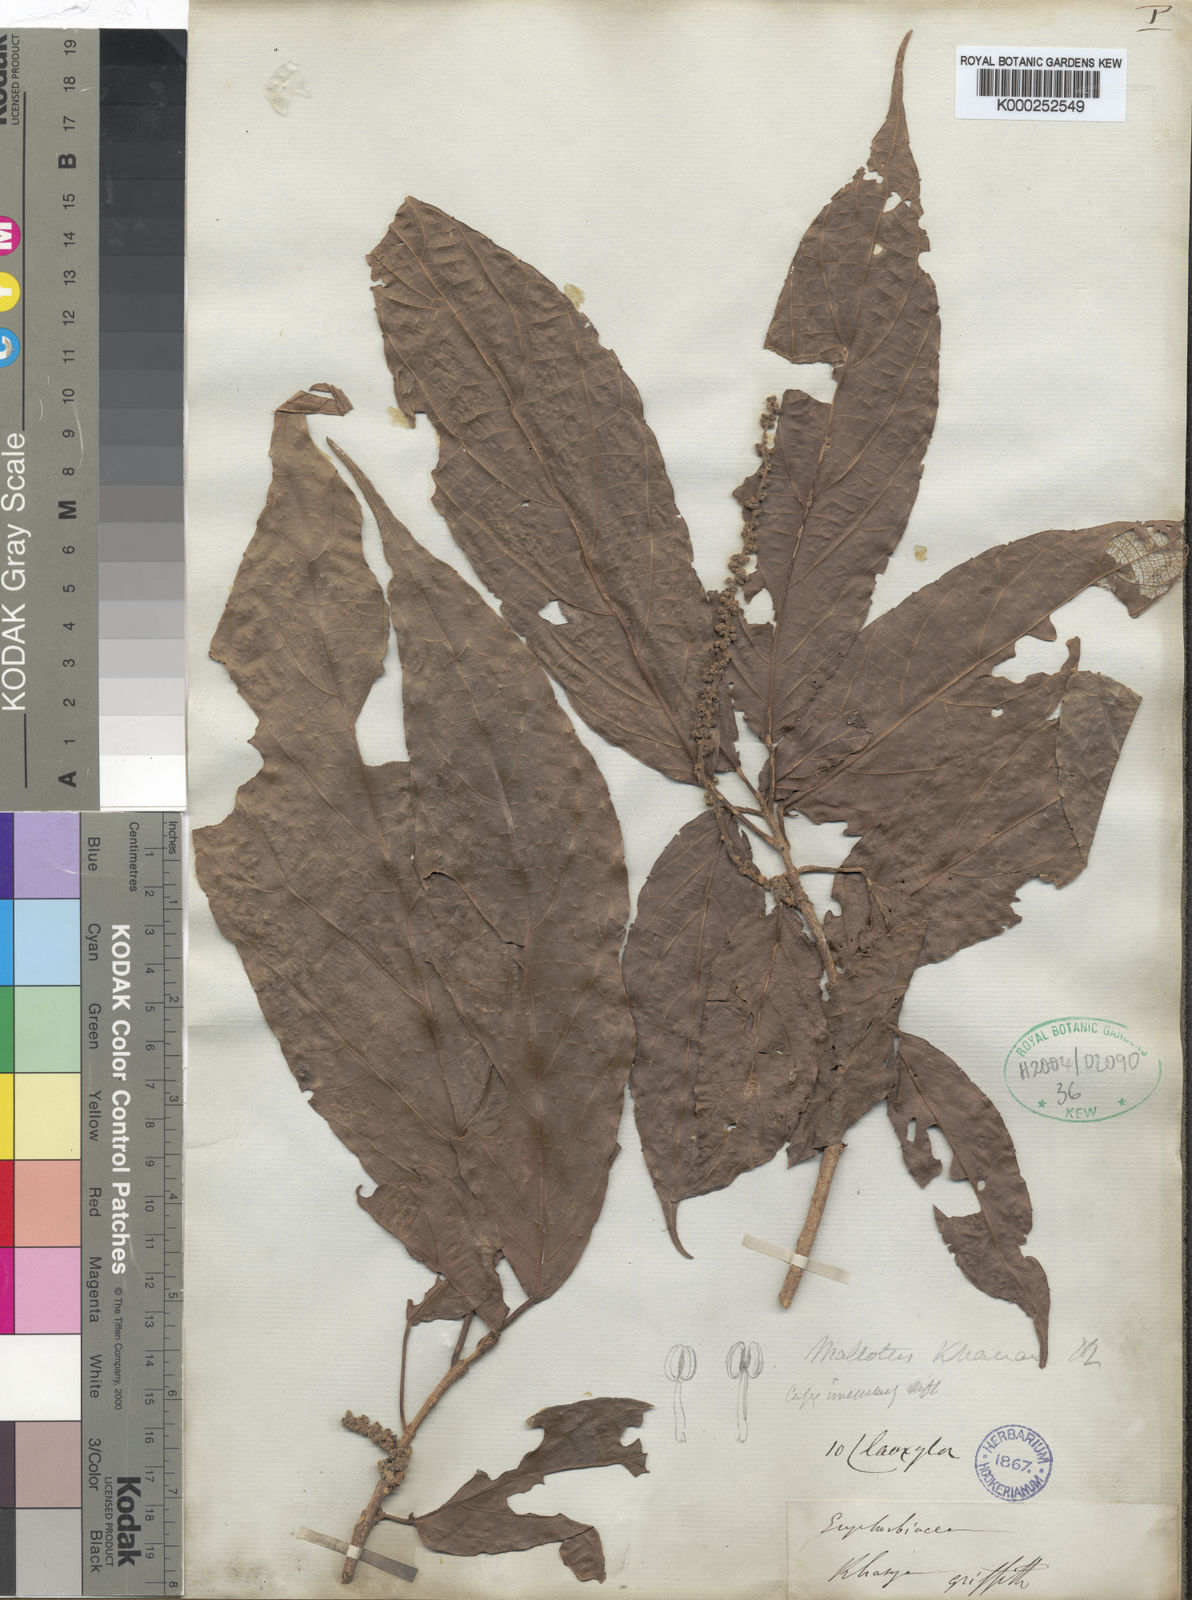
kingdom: Plantae
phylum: Tracheophyta
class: Magnoliopsida
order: Malpighiales
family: Euphorbiaceae
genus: Mallotus
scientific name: Mallotus khasianus
